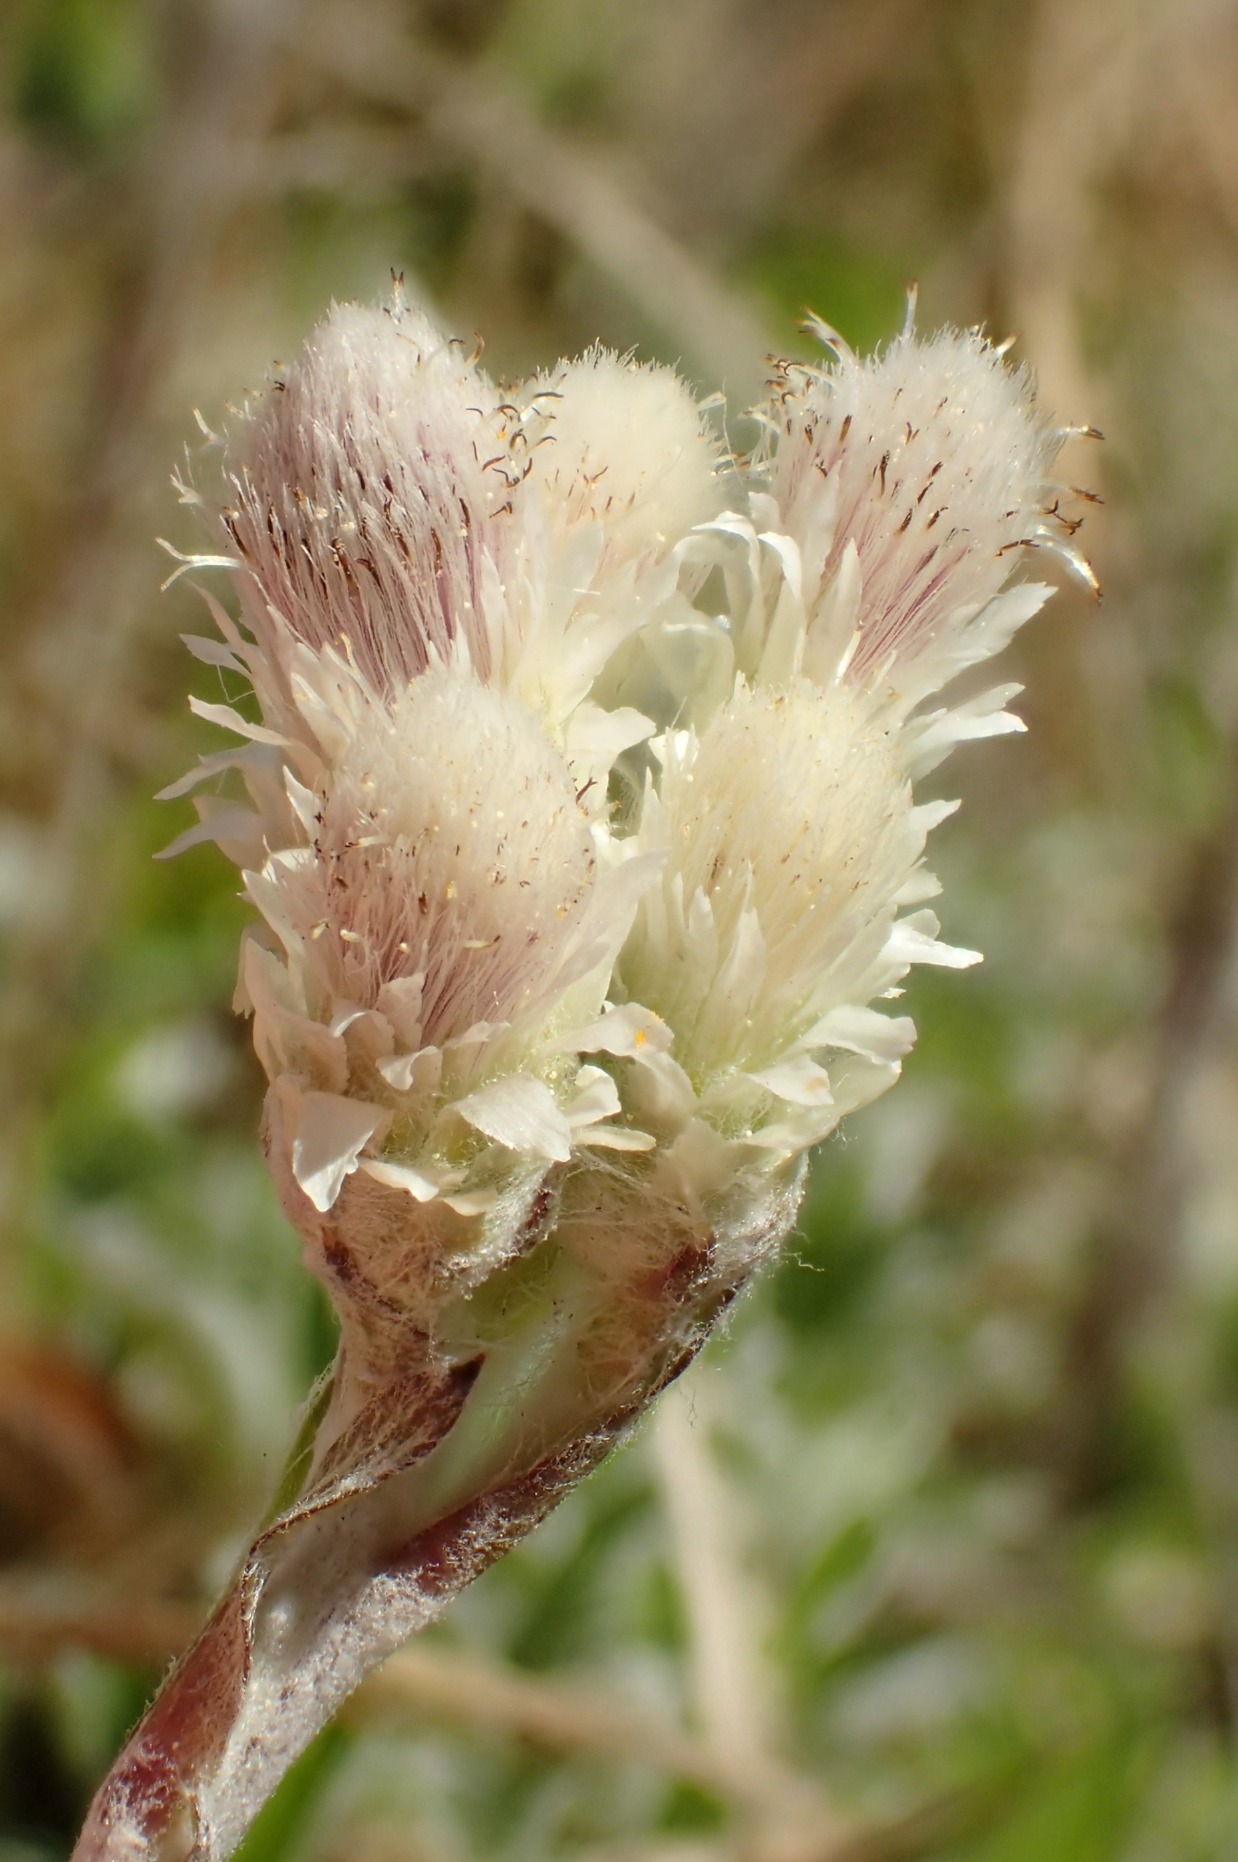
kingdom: Plantae
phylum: Tracheophyta
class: Magnoliopsida
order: Asterales
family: Asteraceae
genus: Antennaria
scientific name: Antennaria dioica
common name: Kattefod
